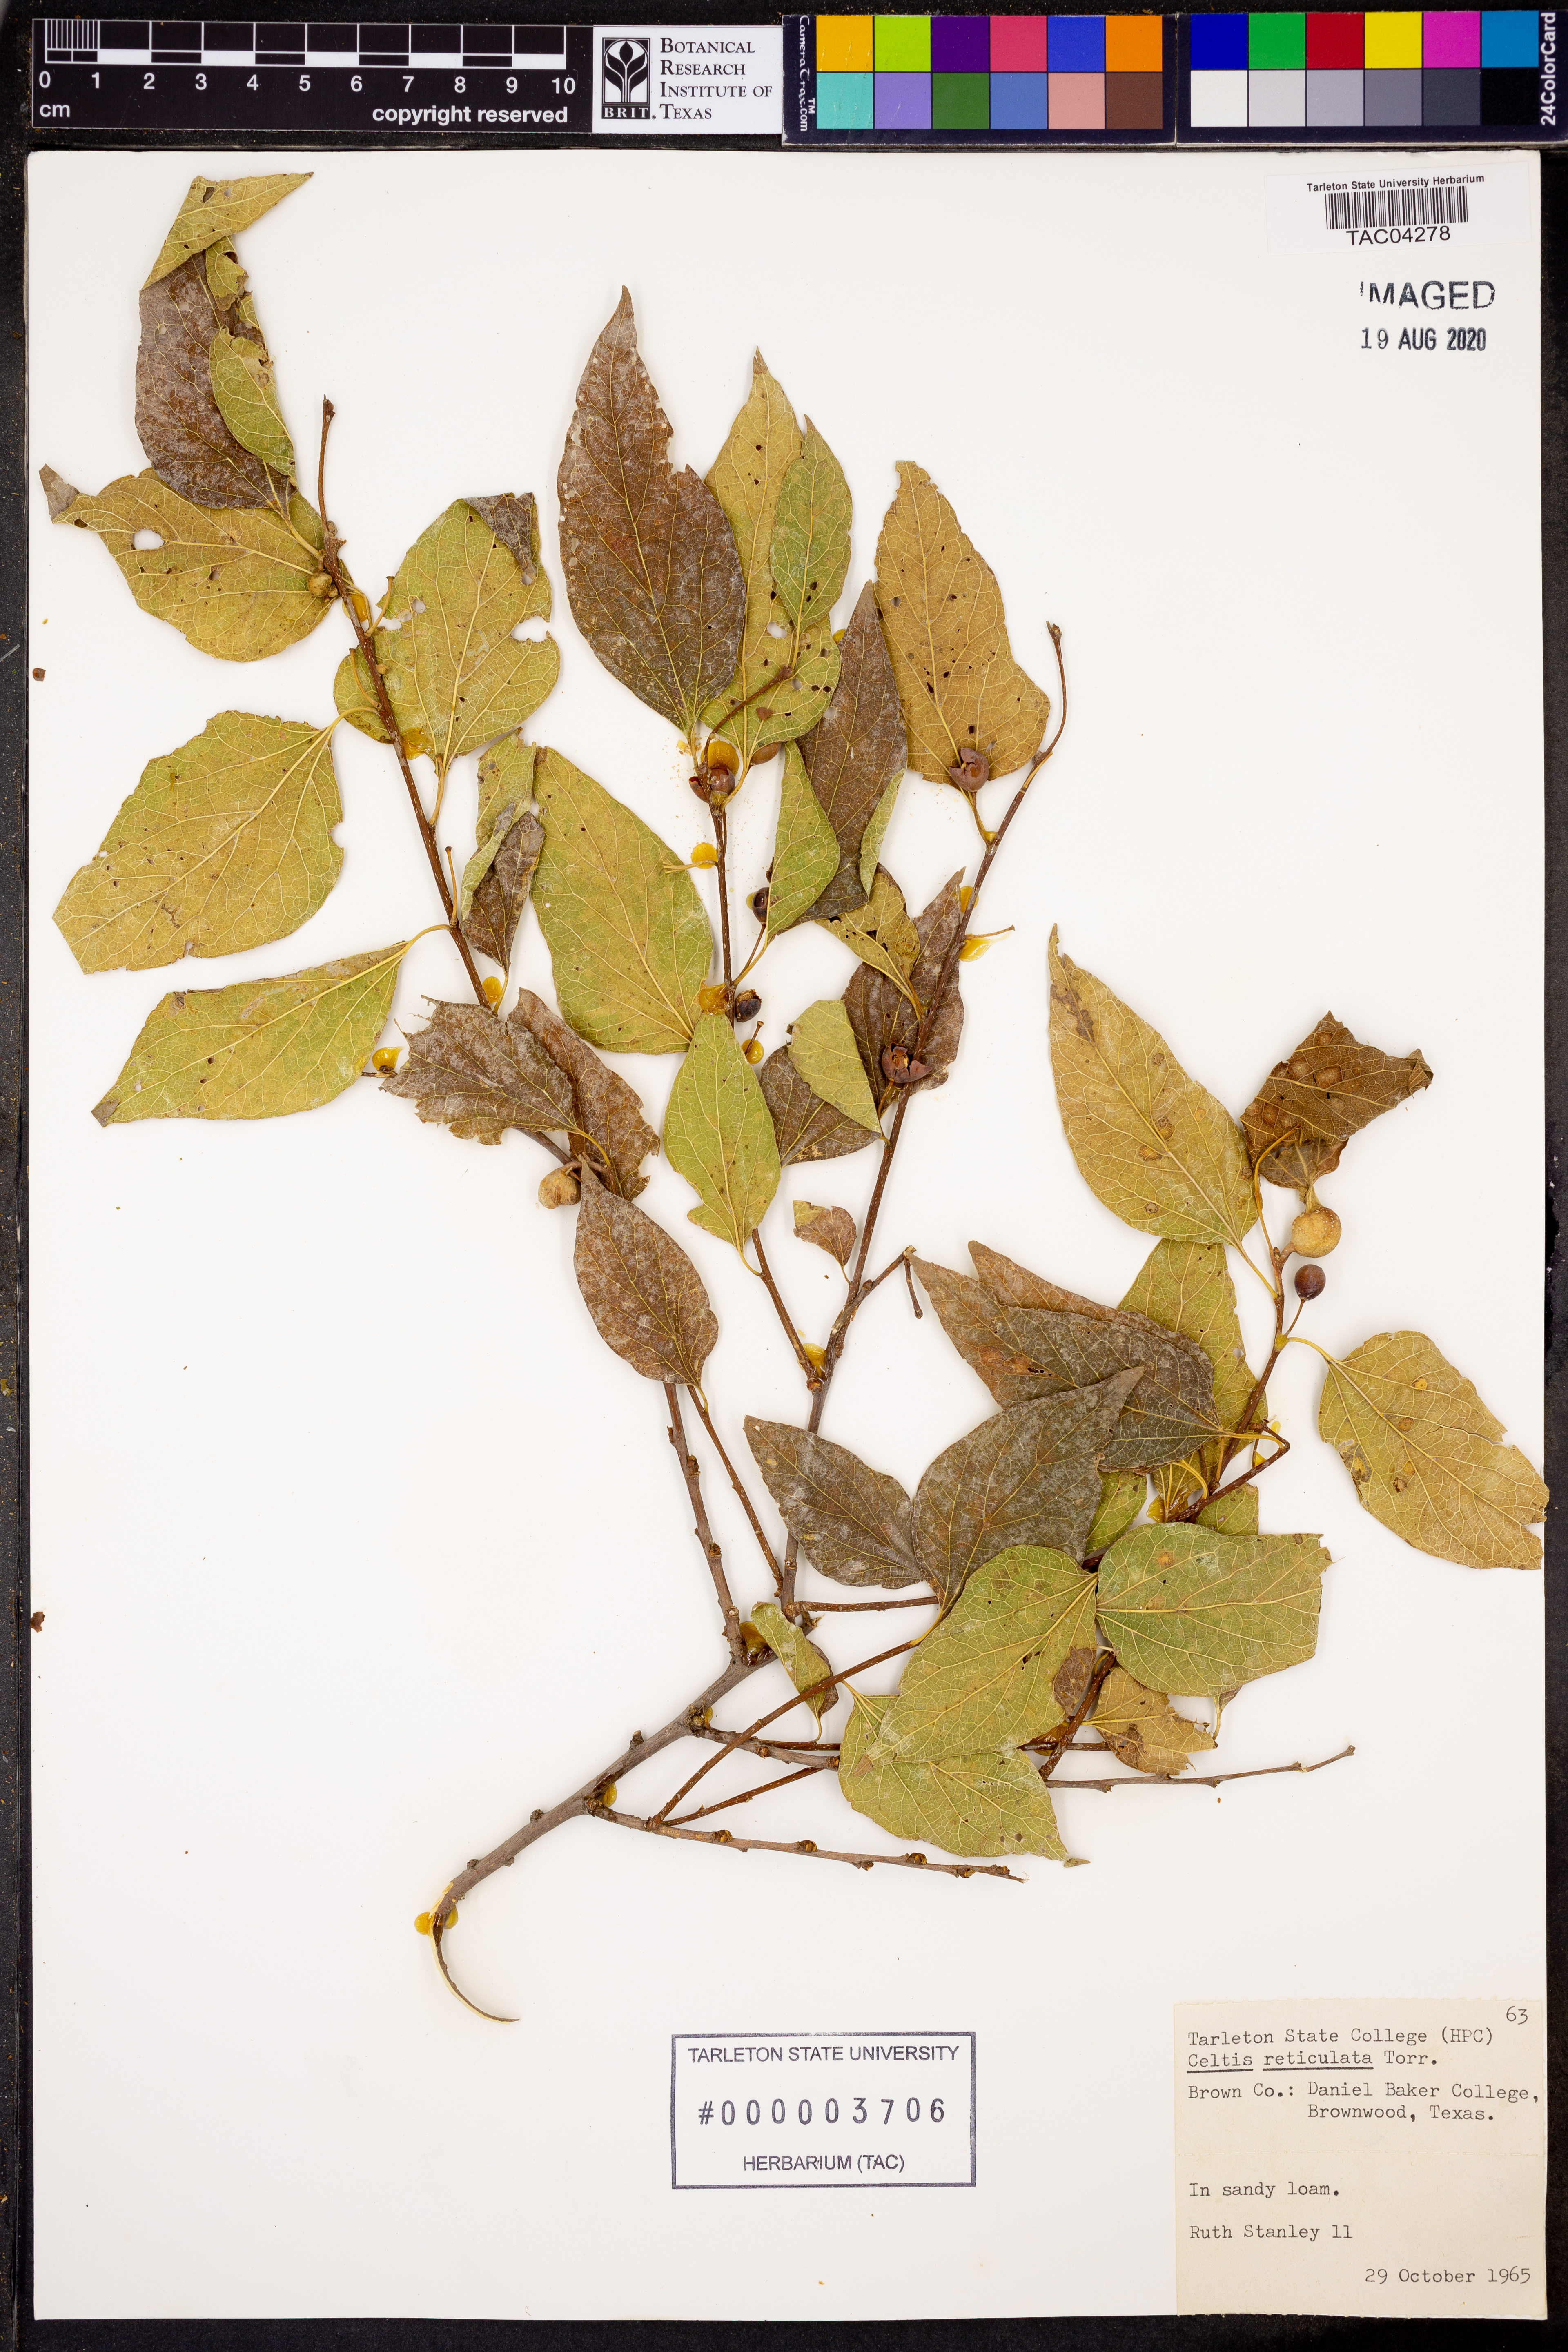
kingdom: Plantae
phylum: Tracheophyta
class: Magnoliopsida
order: Rosales
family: Cannabaceae
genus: Celtis
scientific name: Celtis reticulata
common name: Netleaf hackberry
